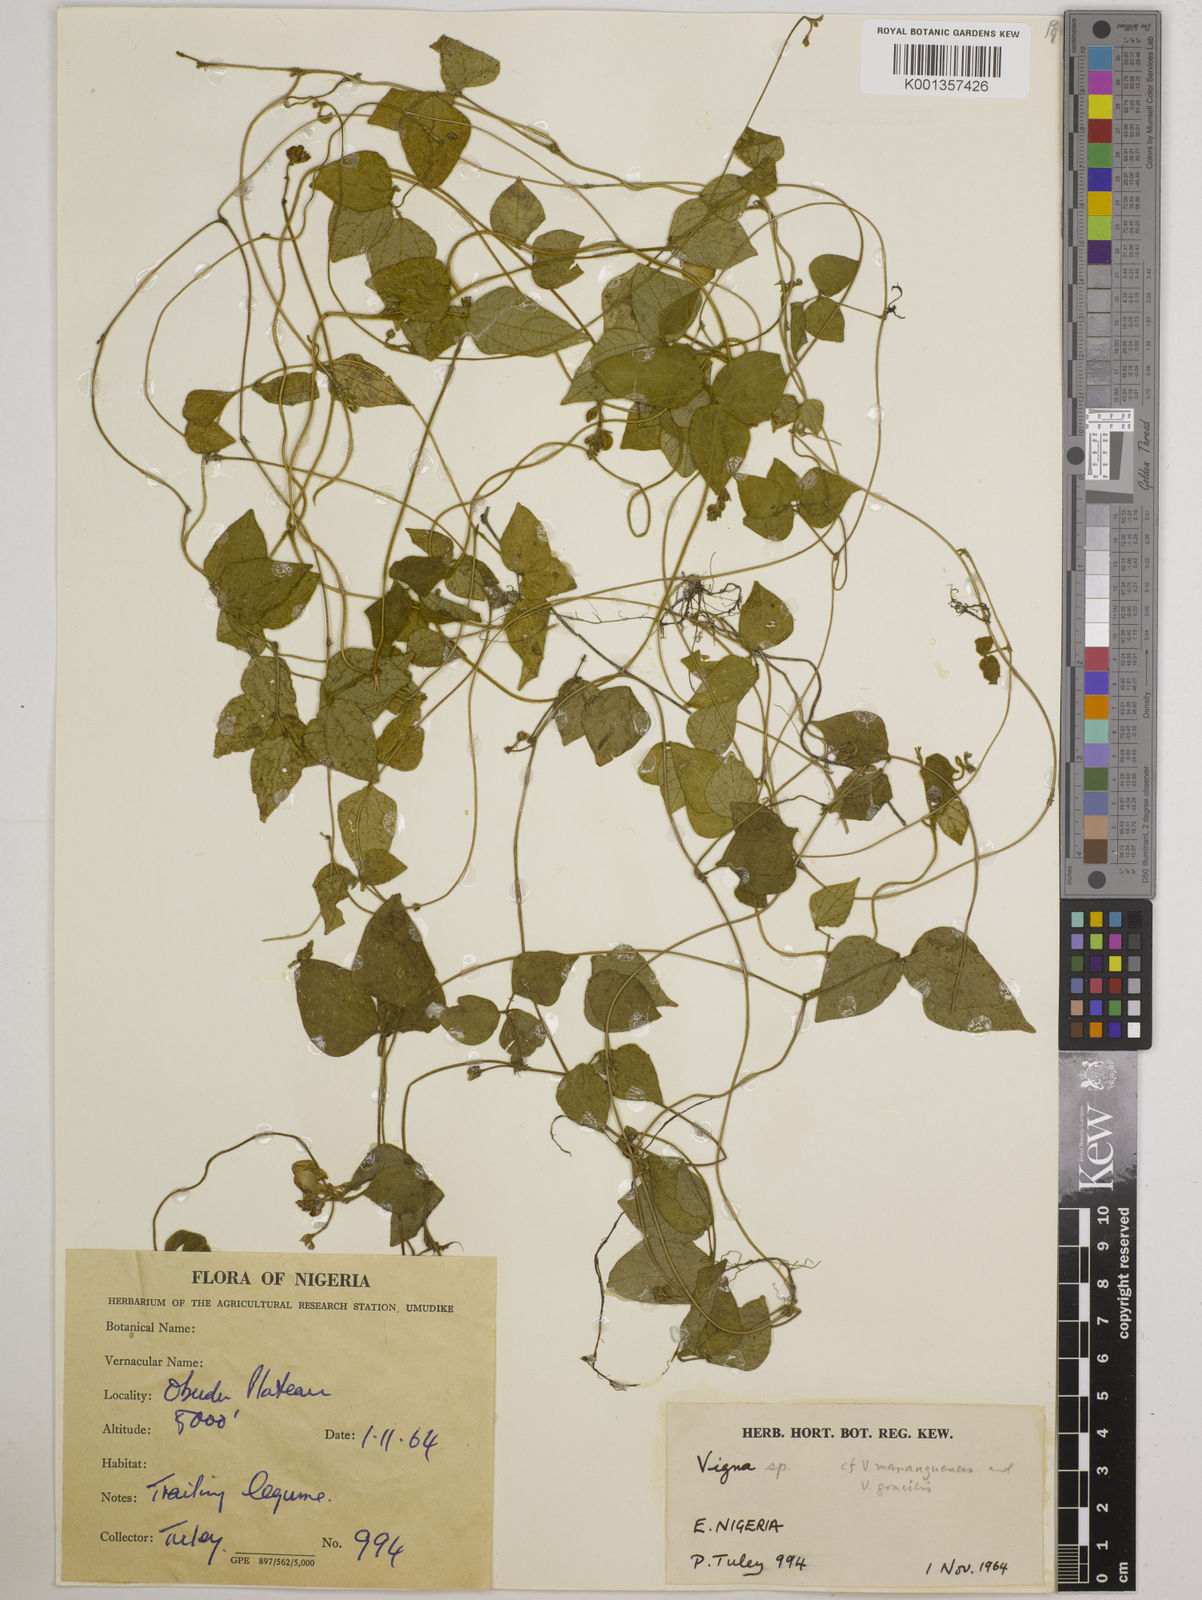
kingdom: Plantae
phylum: Tracheophyta
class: Magnoliopsida
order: Fabales
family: Fabaceae
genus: Vigna
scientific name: Vigna gracilis
